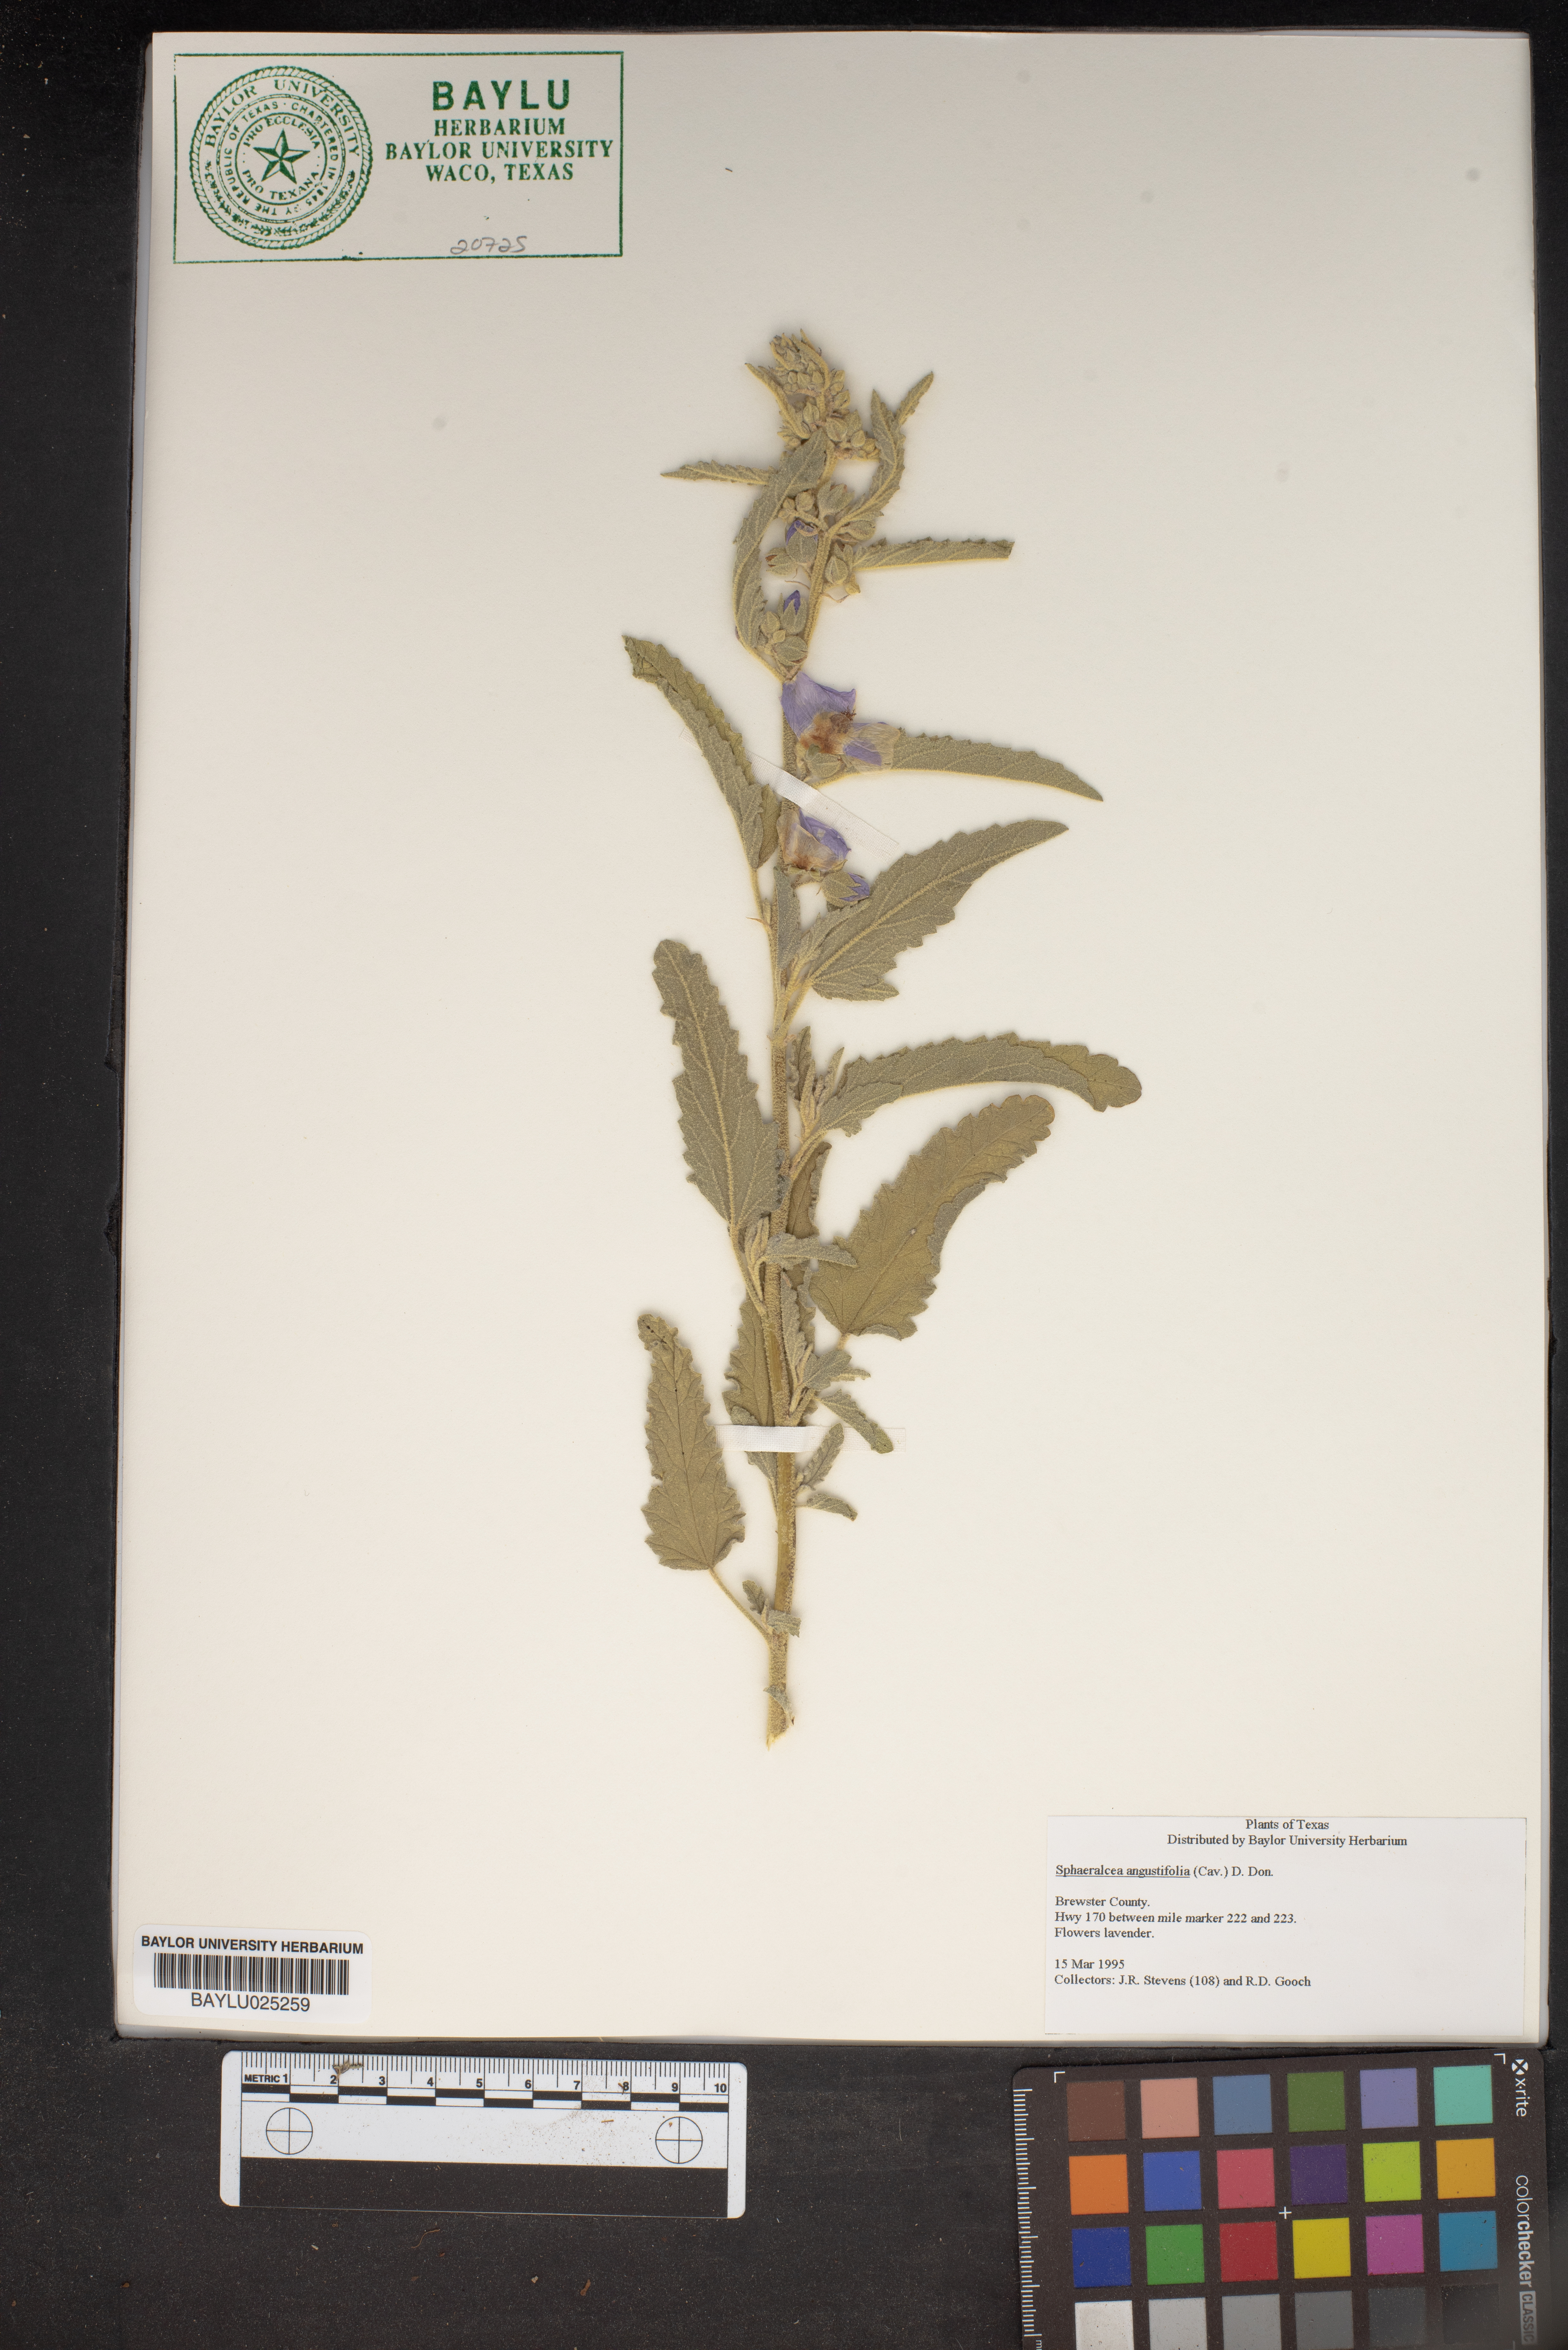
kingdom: Plantae
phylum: Tracheophyta
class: Magnoliopsida
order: Malvales
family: Malvaceae
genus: Sphaeralcea
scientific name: Sphaeralcea angustifolia
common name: Copper globe-mallow
